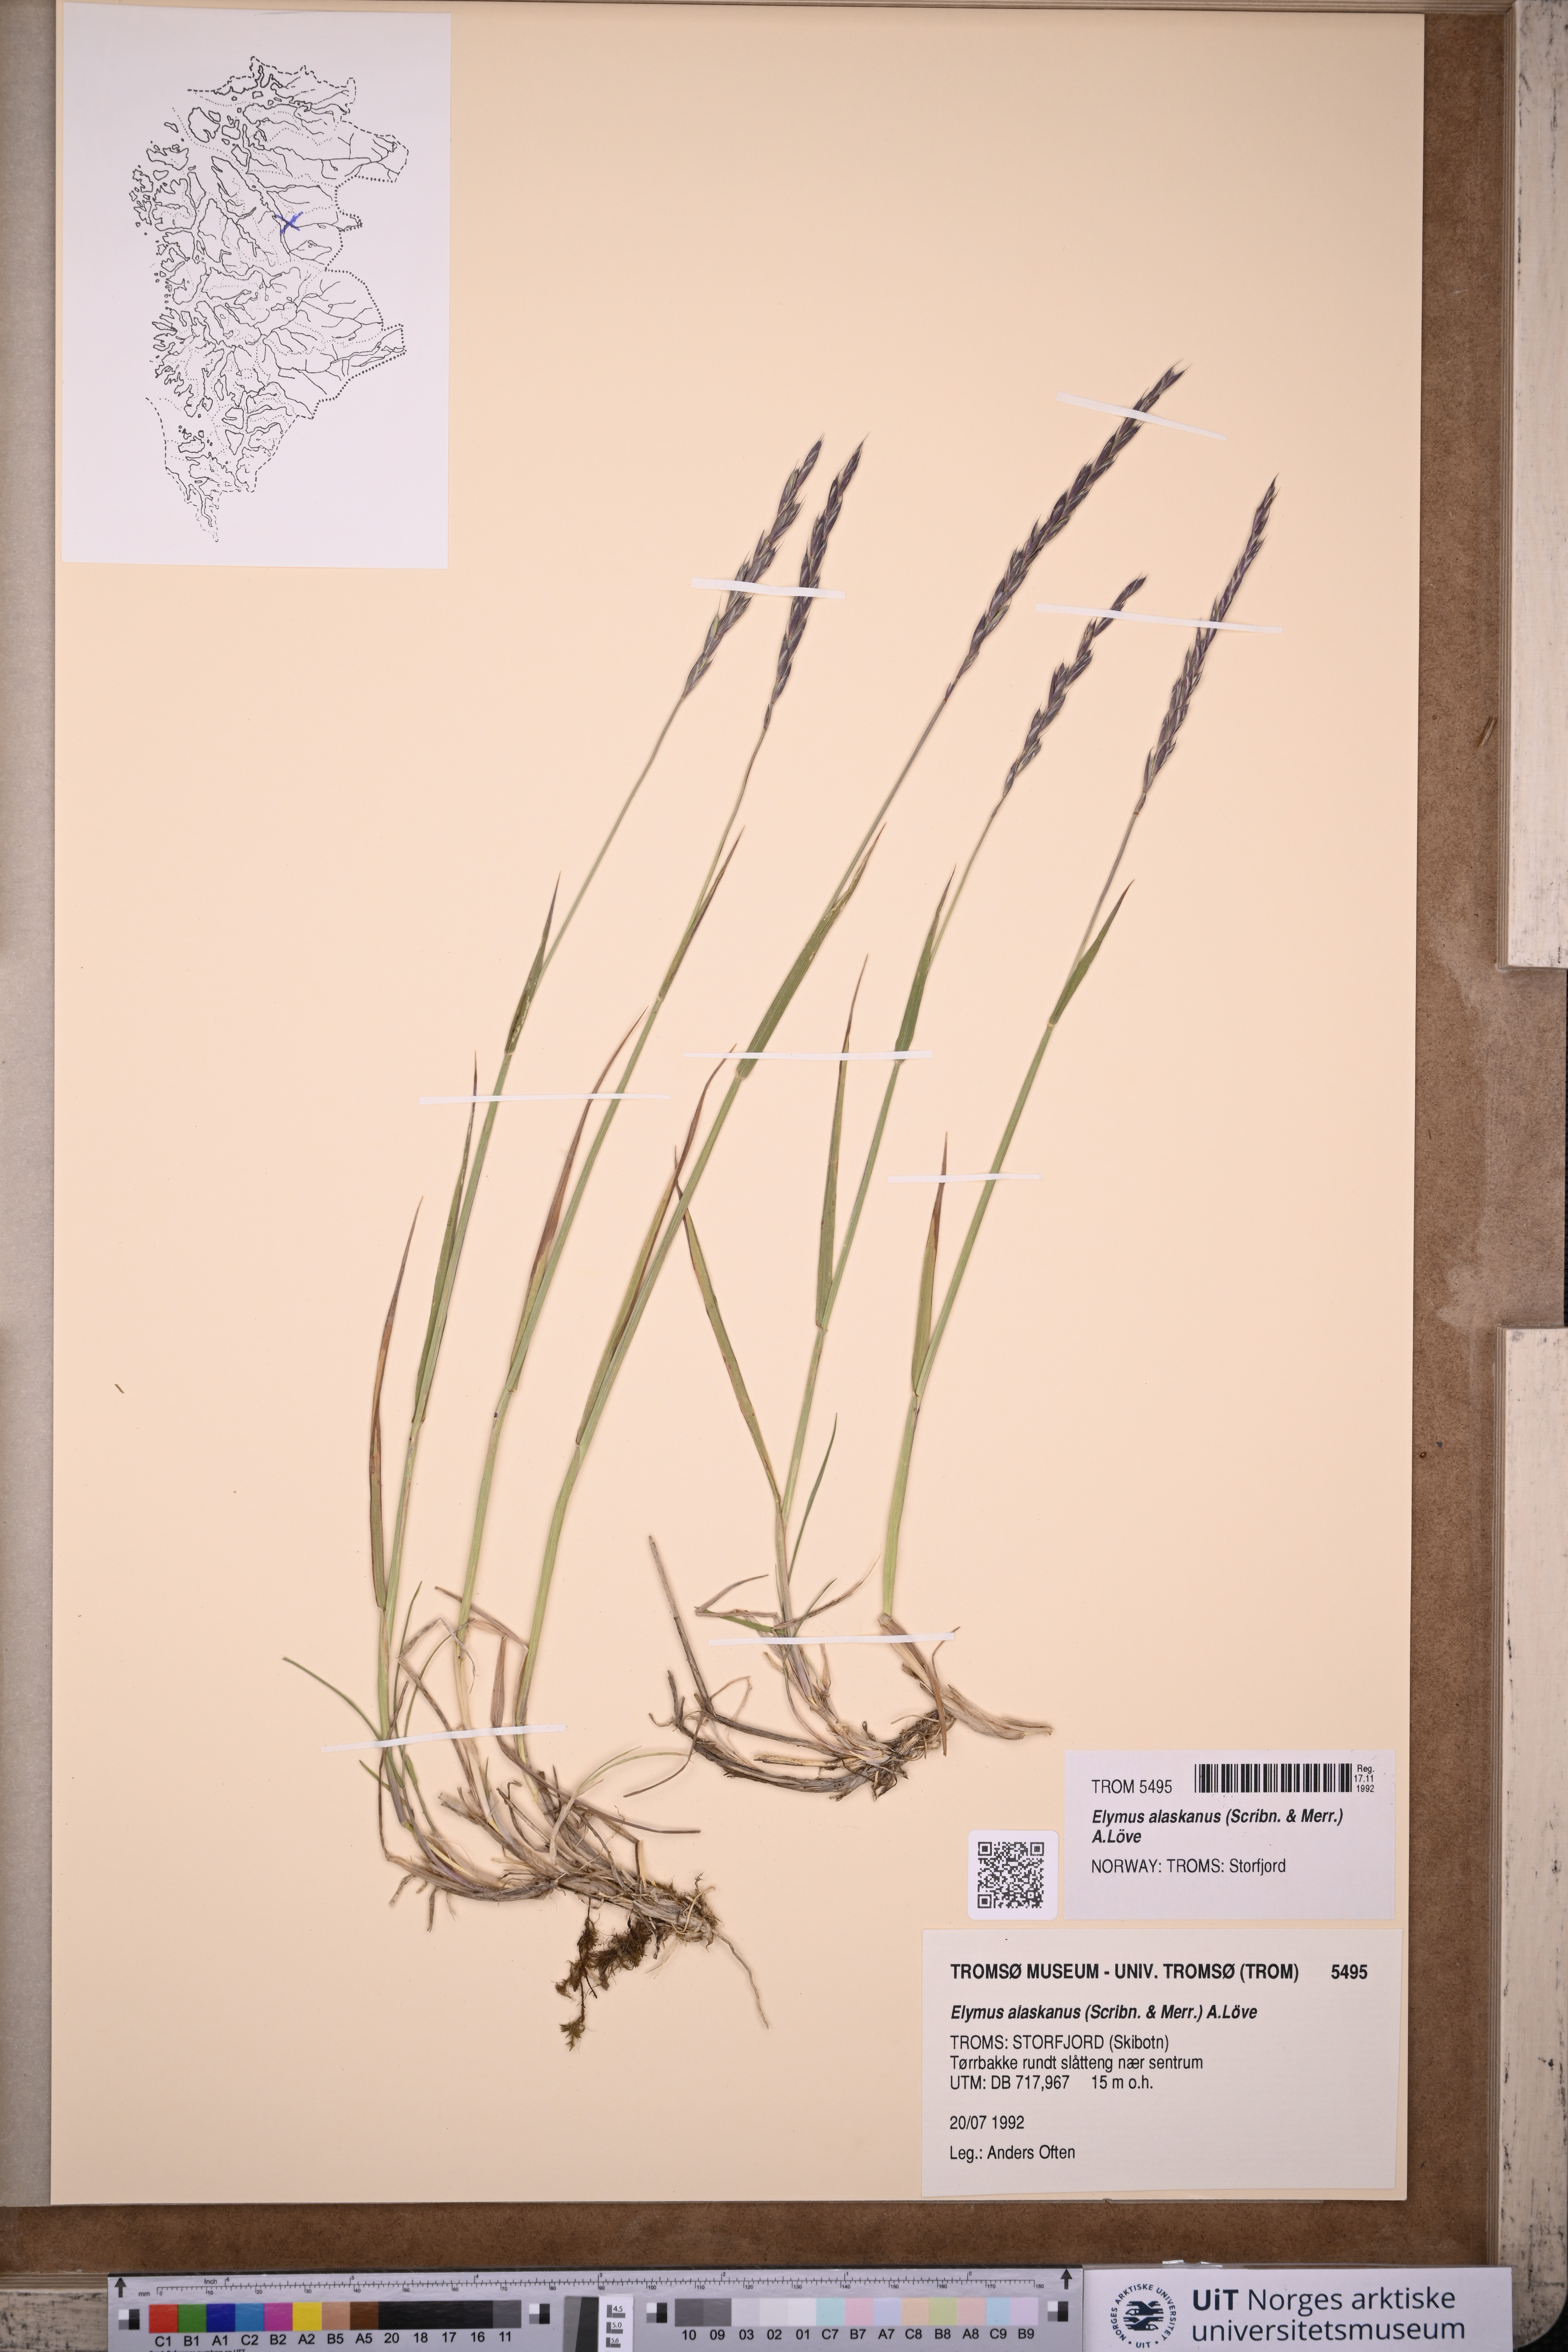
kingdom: Plantae
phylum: Tracheophyta
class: Liliopsida
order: Poales
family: Poaceae
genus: Elymus
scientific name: Elymus alaskanus
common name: Alaska wheatgrass
